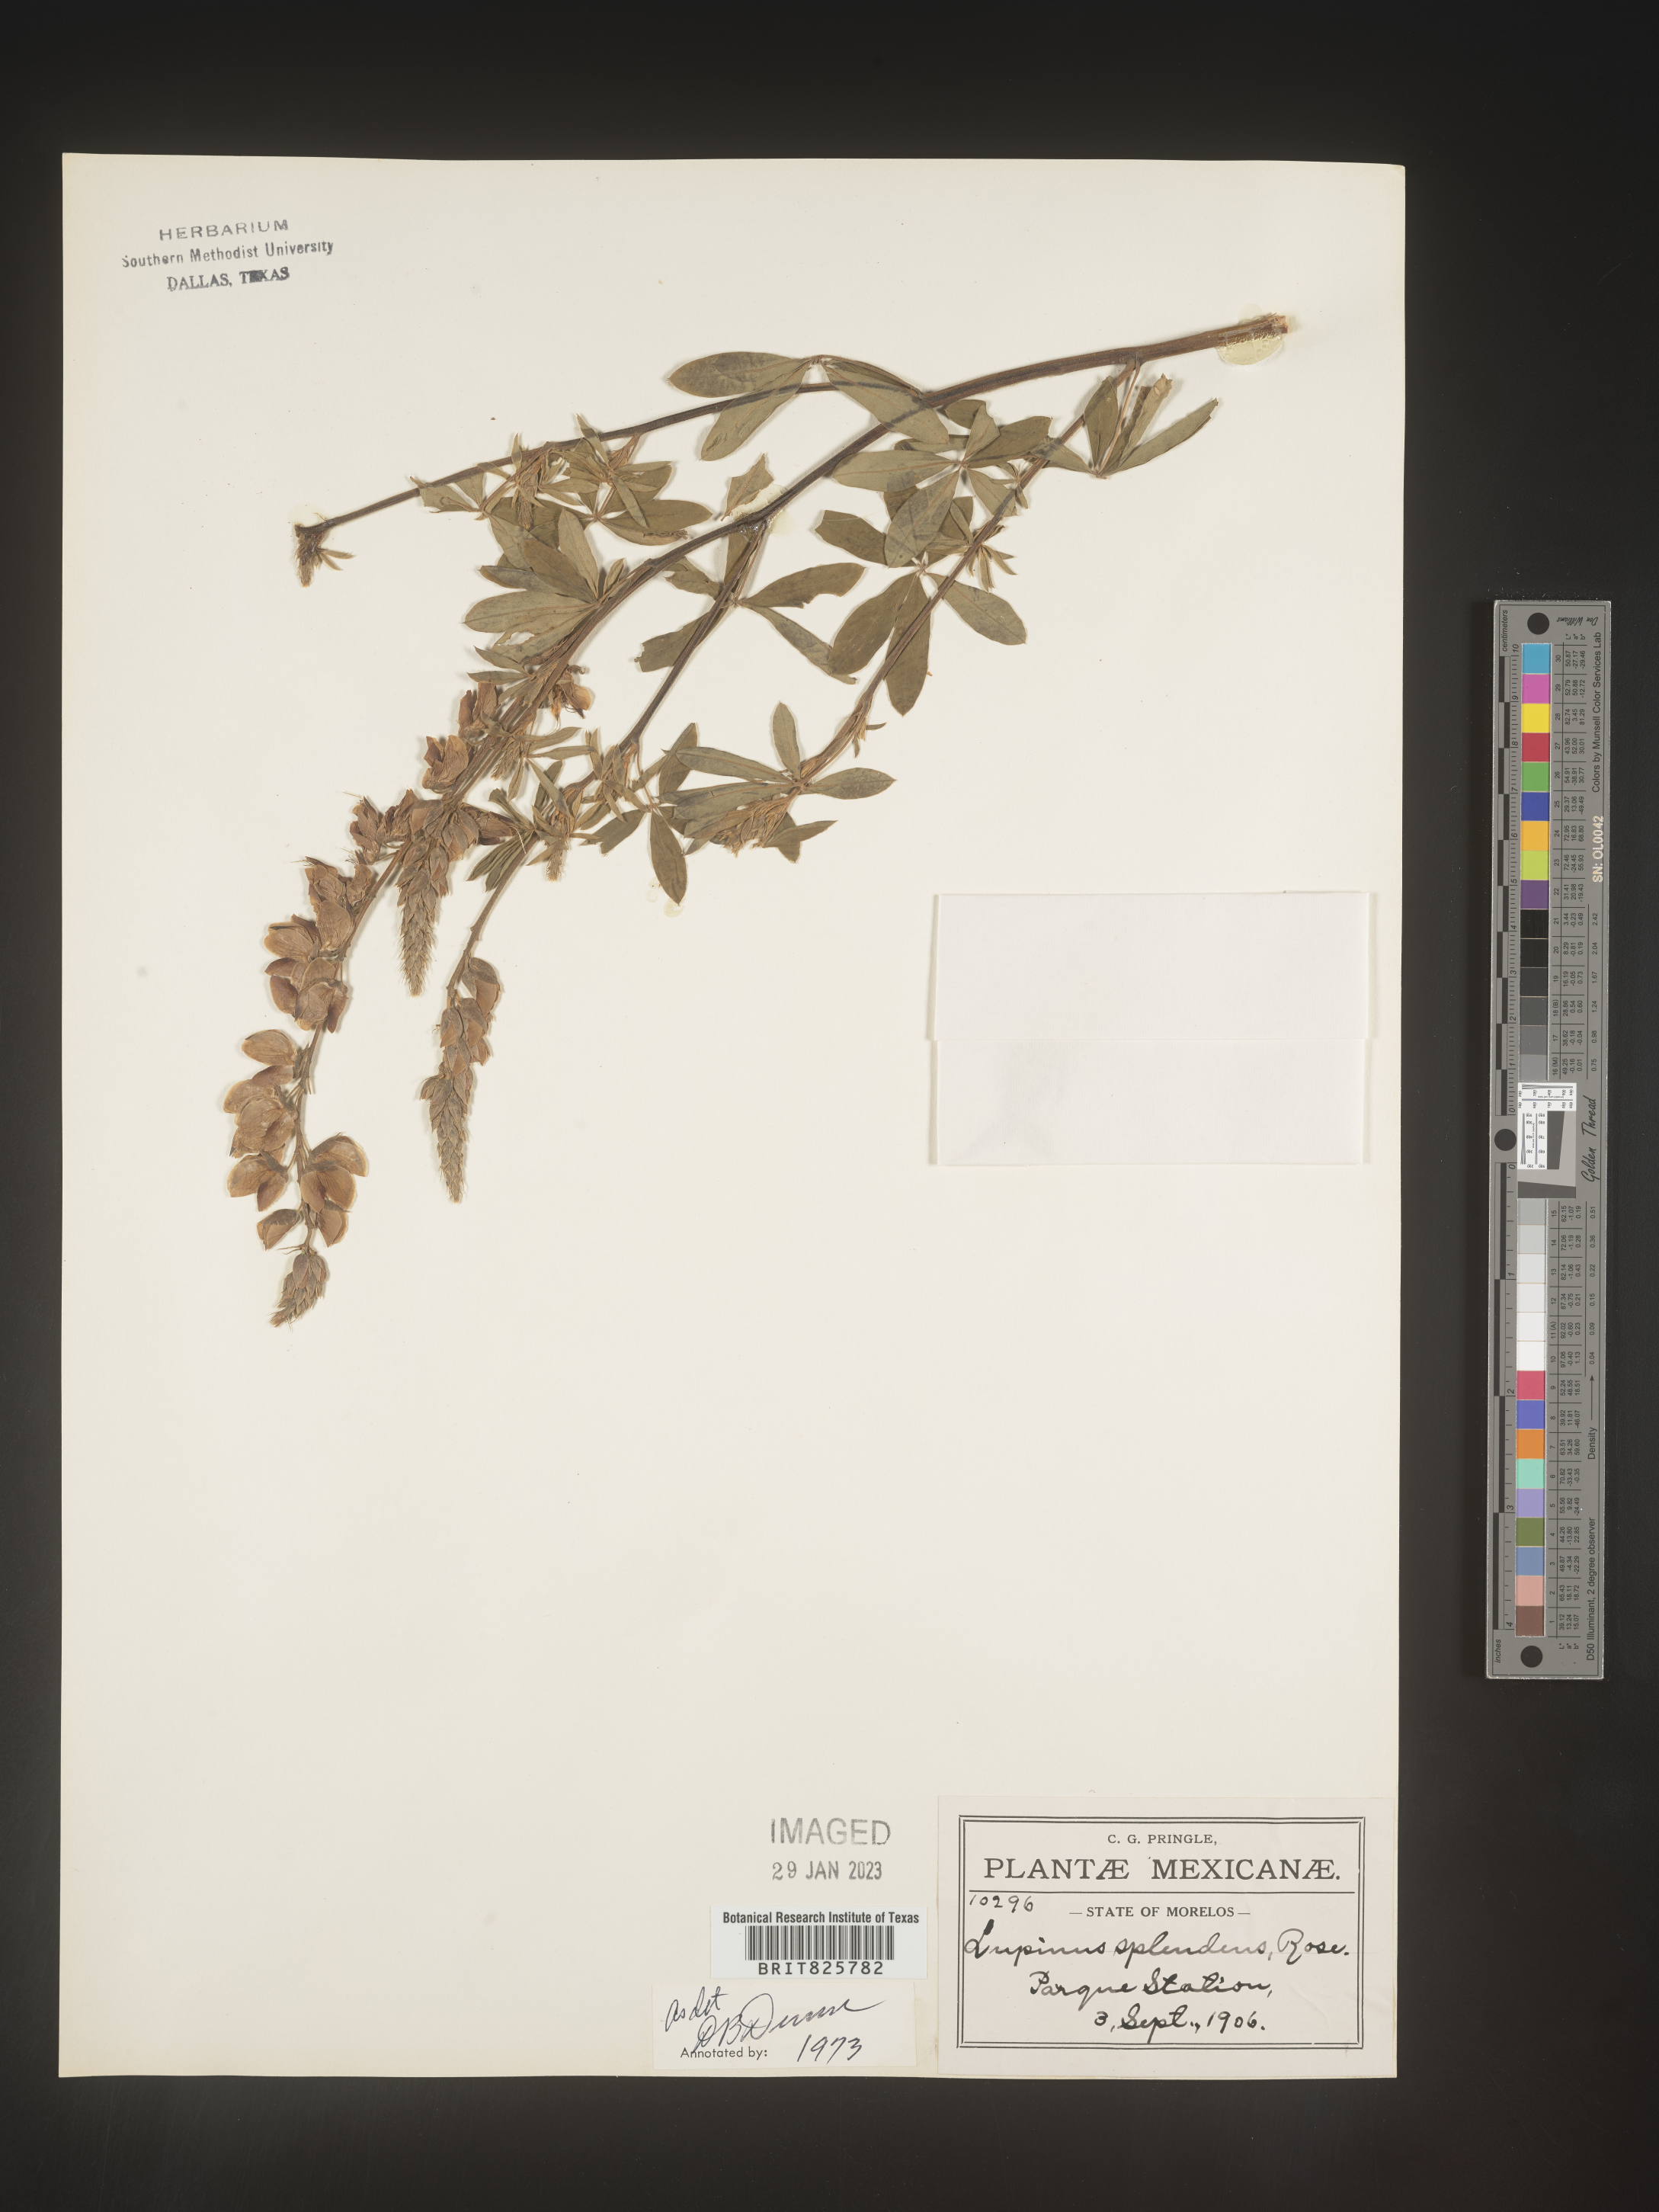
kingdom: Plantae
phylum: Tracheophyta
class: Magnoliopsida
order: Fabales
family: Fabaceae
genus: Lupinus
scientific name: Lupinus
